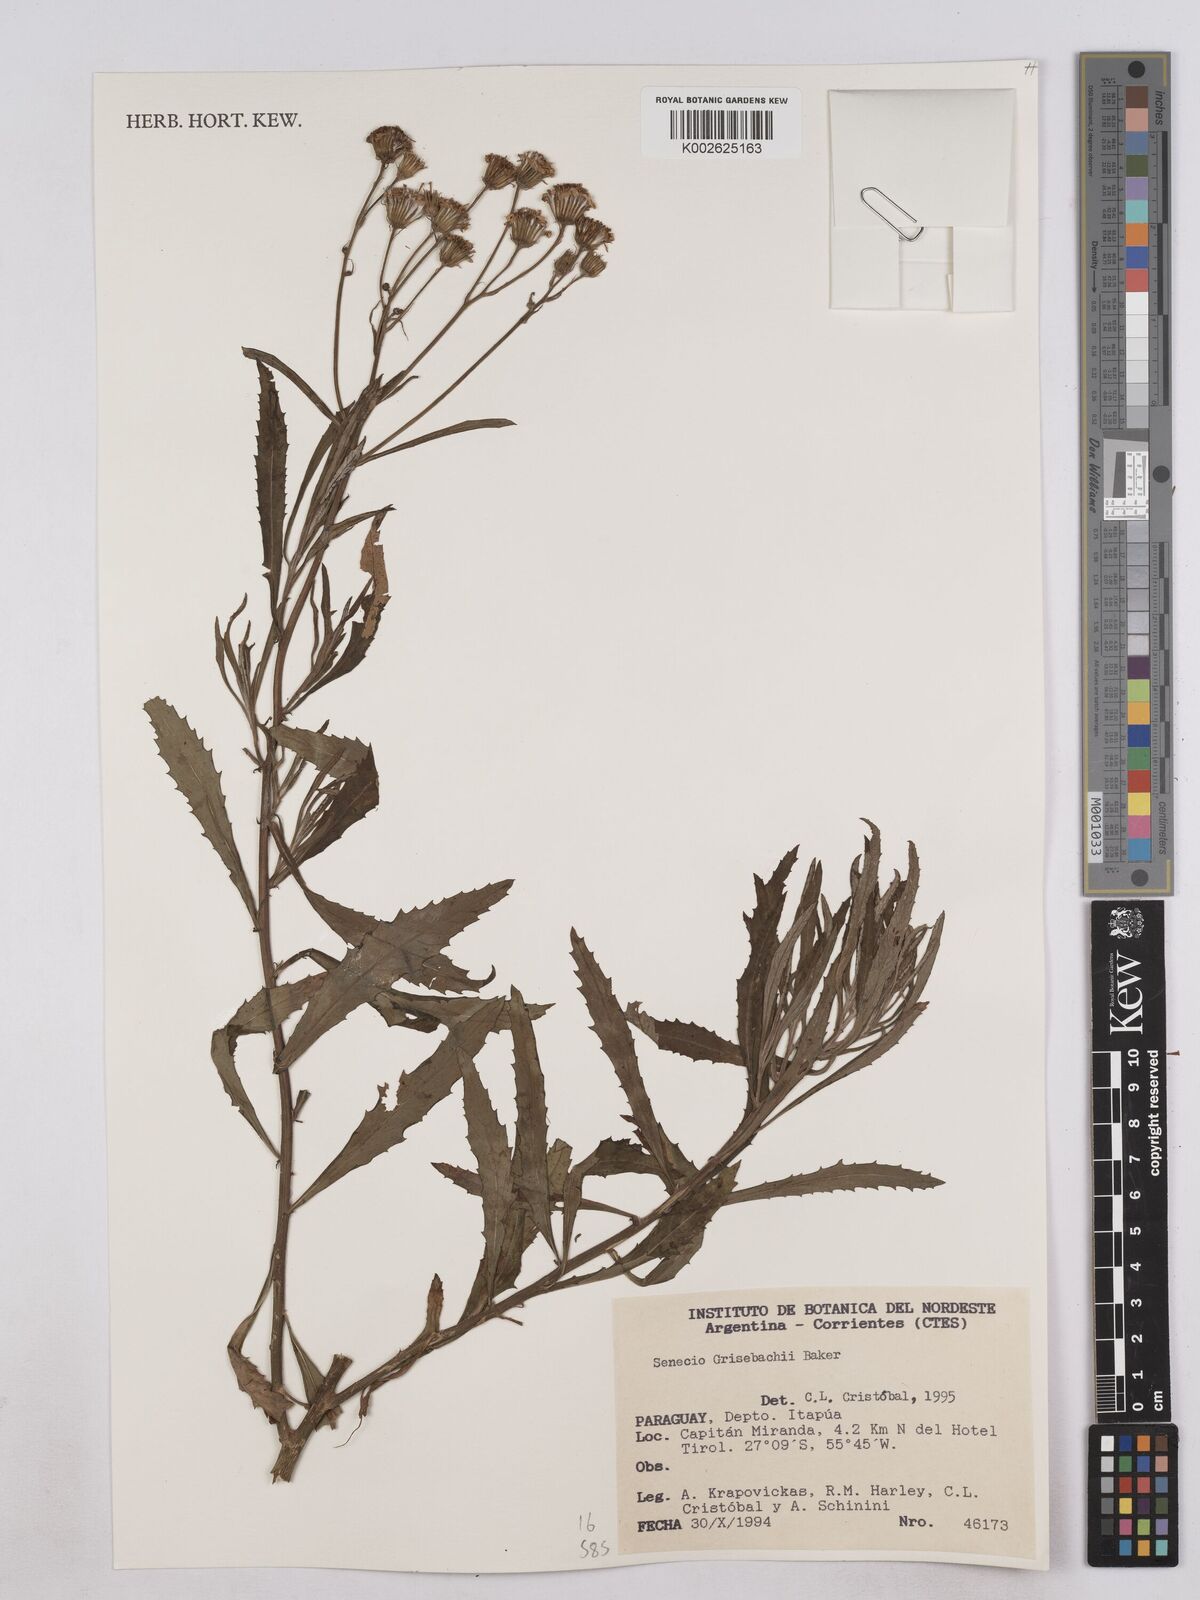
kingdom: Plantae
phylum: Tracheophyta
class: Magnoliopsida
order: Asterales
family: Asteraceae
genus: Senecio
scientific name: Senecio grisebachii
